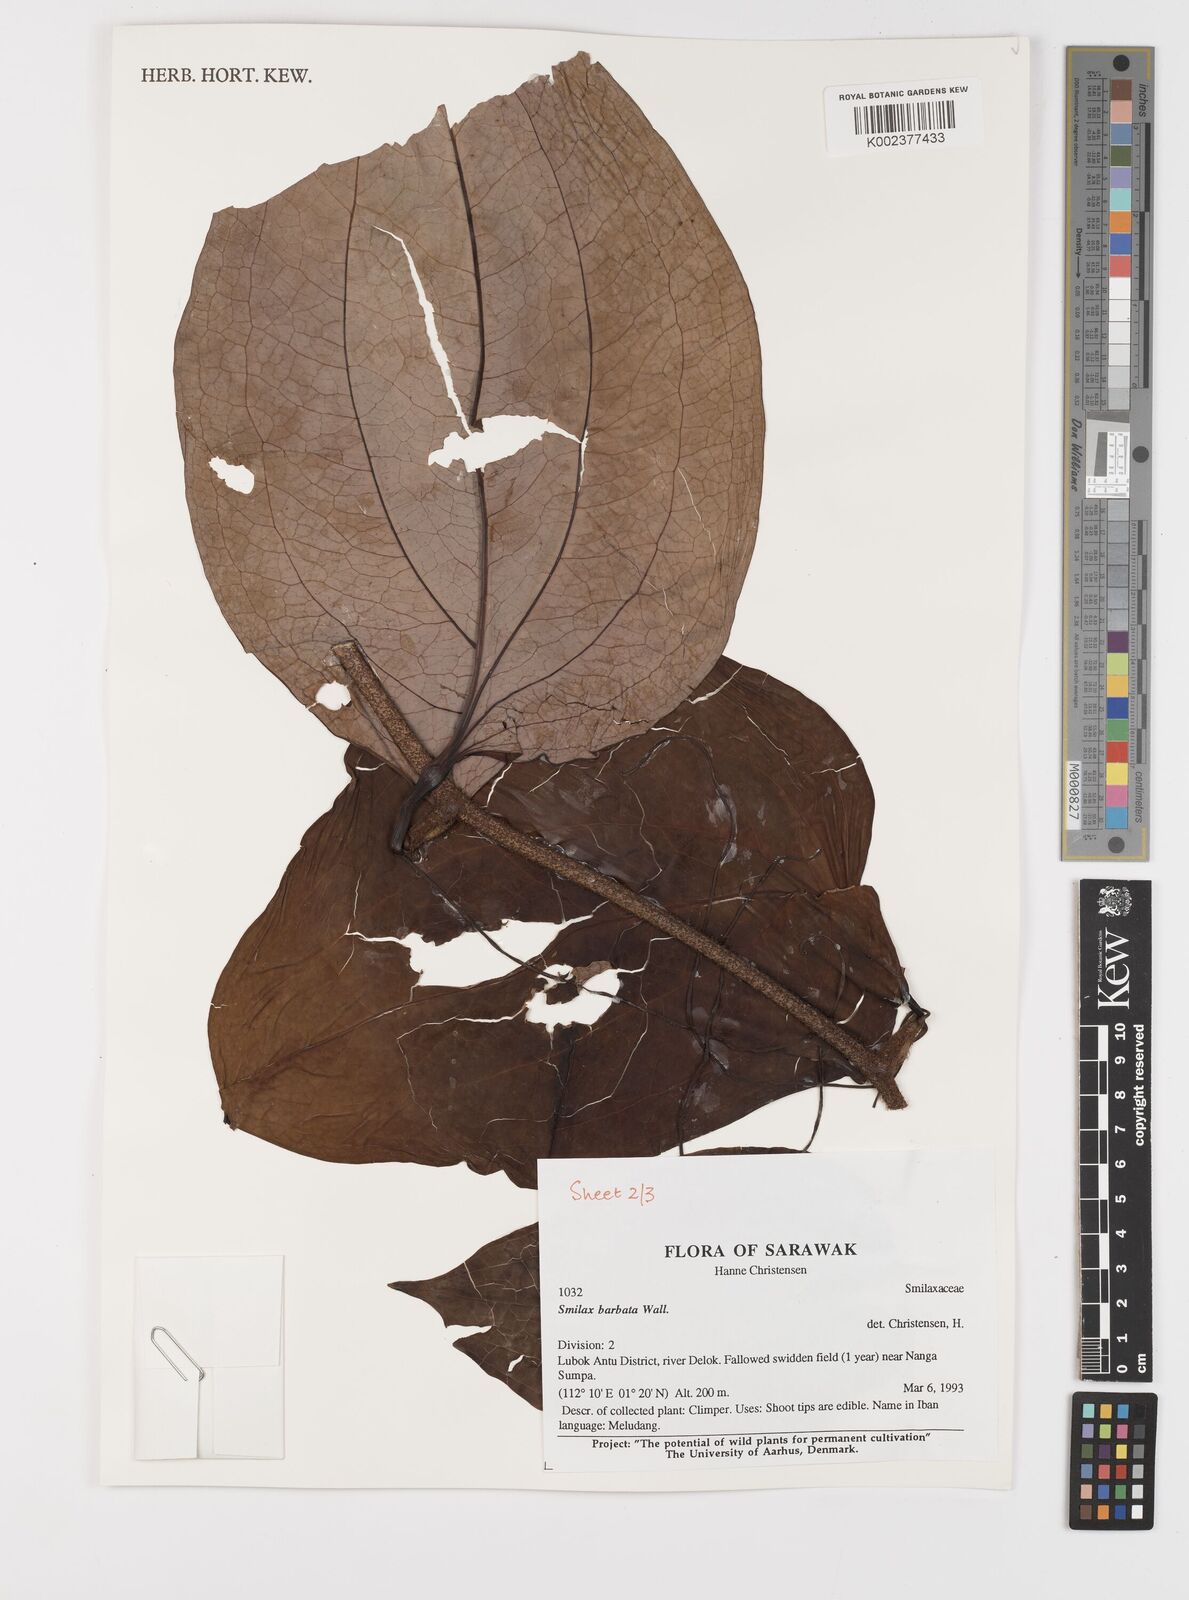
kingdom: Plantae
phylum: Tracheophyta
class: Liliopsida
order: Liliales
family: Smilacaceae
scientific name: Smilacaceae
